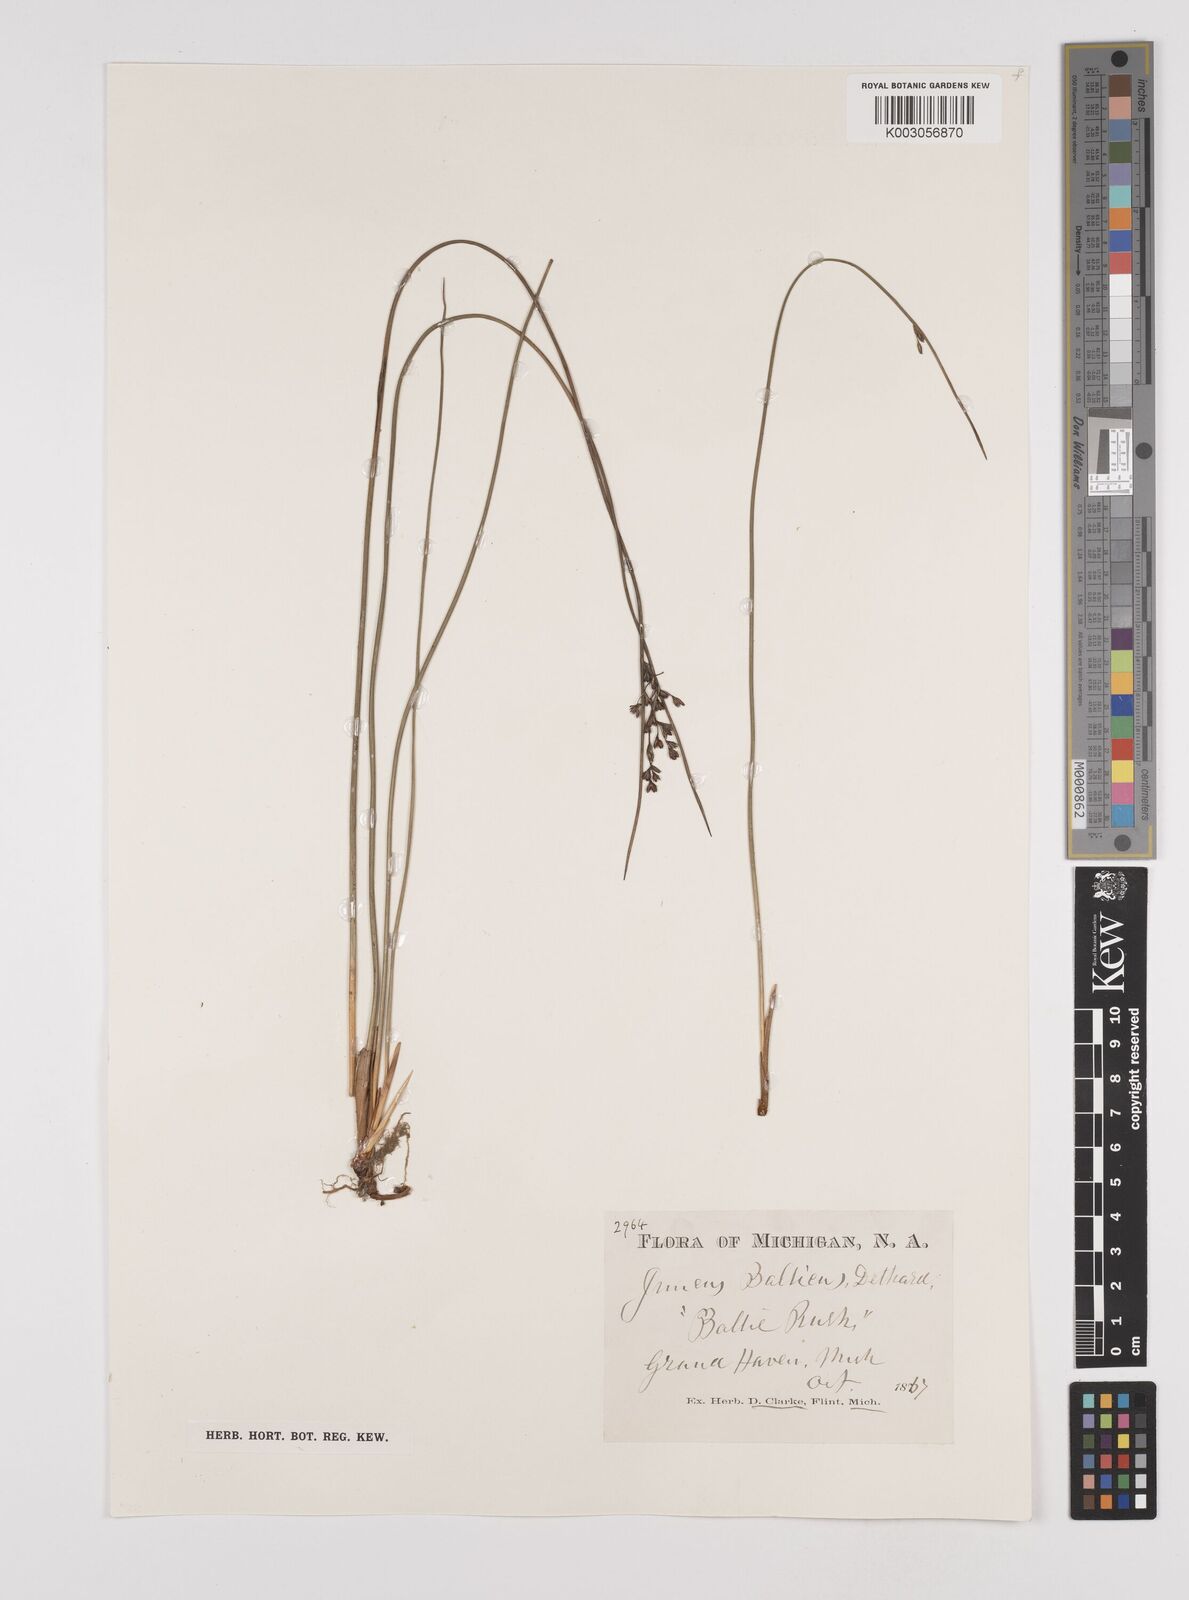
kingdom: Plantae
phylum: Tracheophyta
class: Liliopsida
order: Poales
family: Juncaceae
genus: Juncus
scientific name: Juncus balticus
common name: Baltic rush
